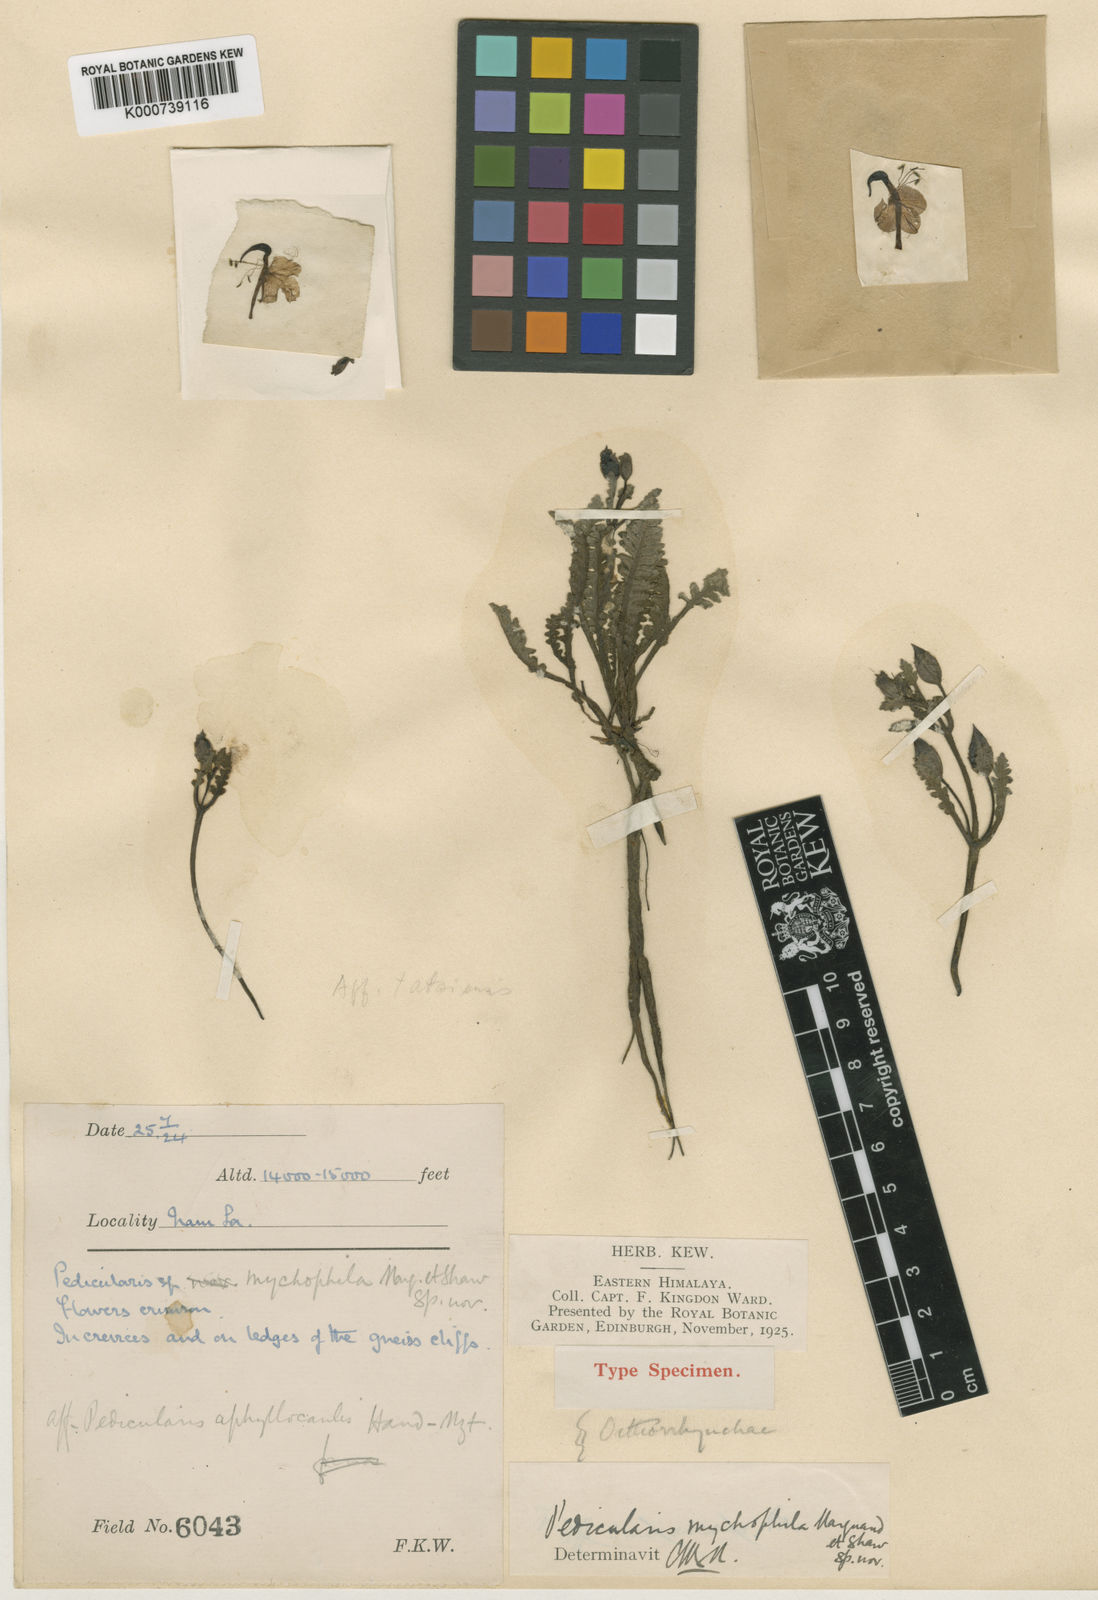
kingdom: Plantae
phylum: Tracheophyta
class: Magnoliopsida
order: Lamiales
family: Orobanchaceae
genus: Pedicularis
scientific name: Pedicularis mychophila
